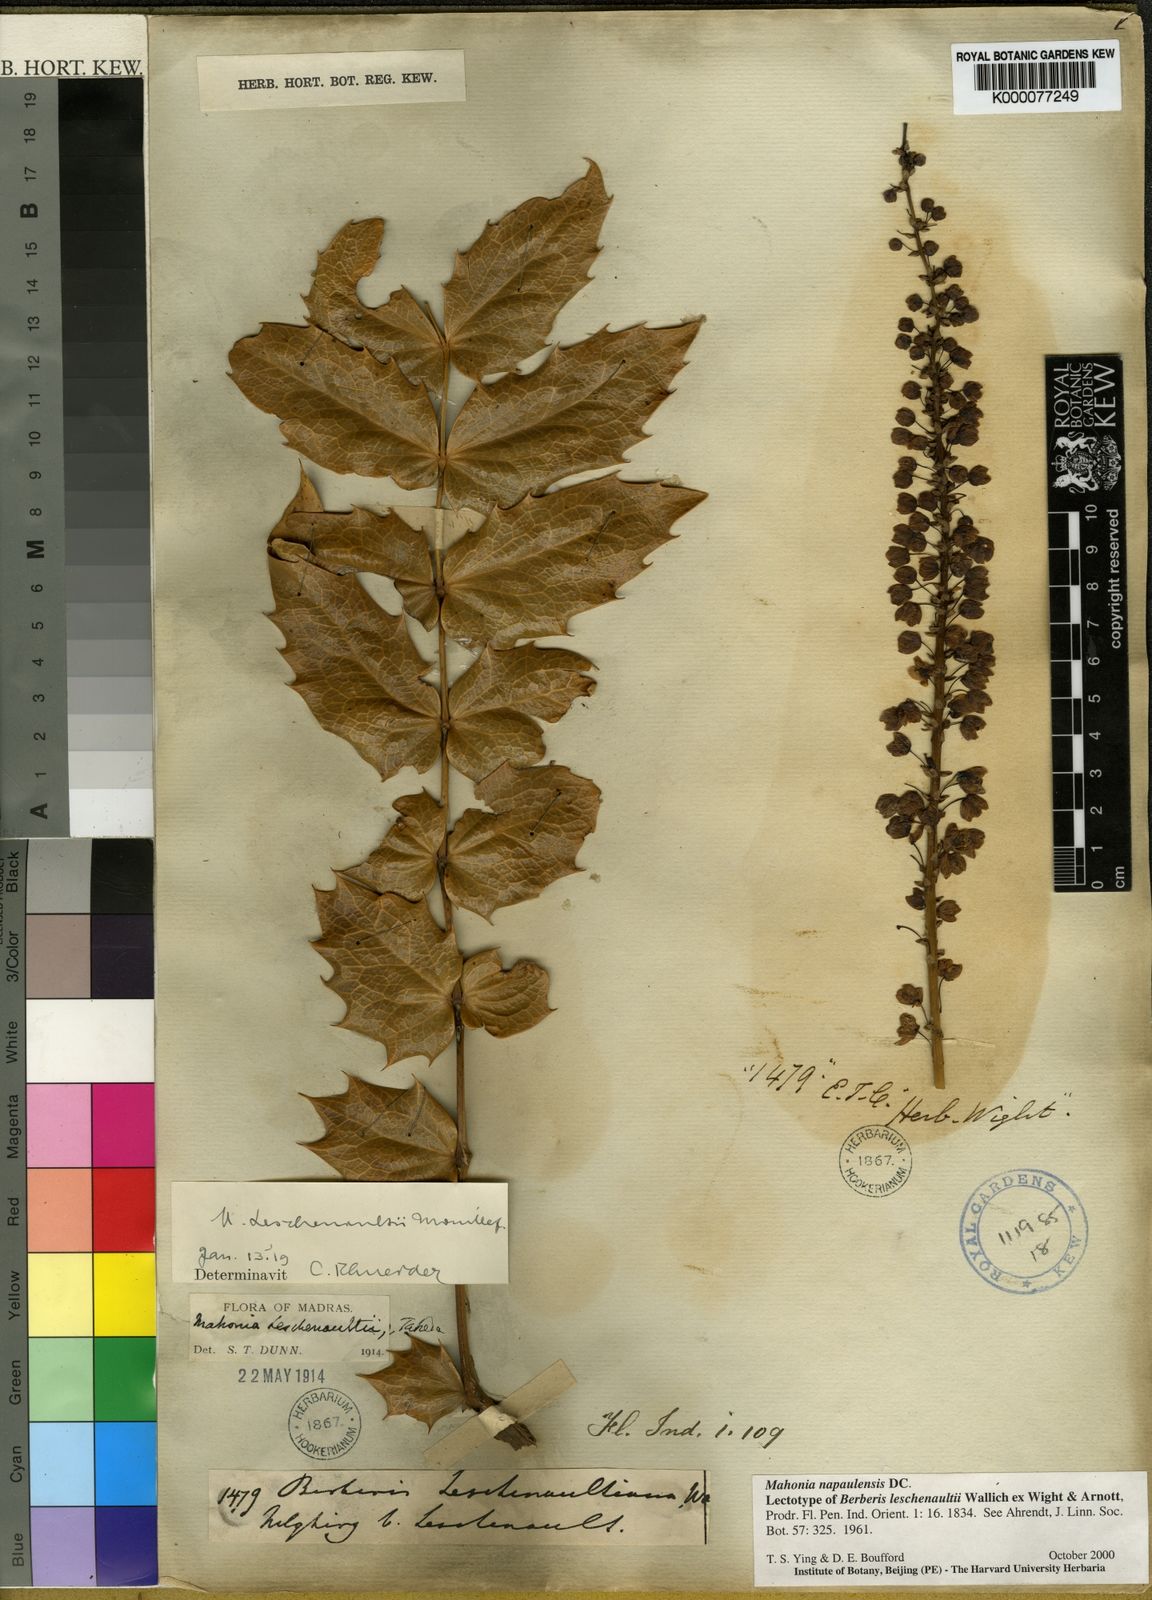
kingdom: Plantae
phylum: Tracheophyta
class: Magnoliopsida
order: Ranunculales
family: Berberidaceae
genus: Mahonia
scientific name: Mahonia
